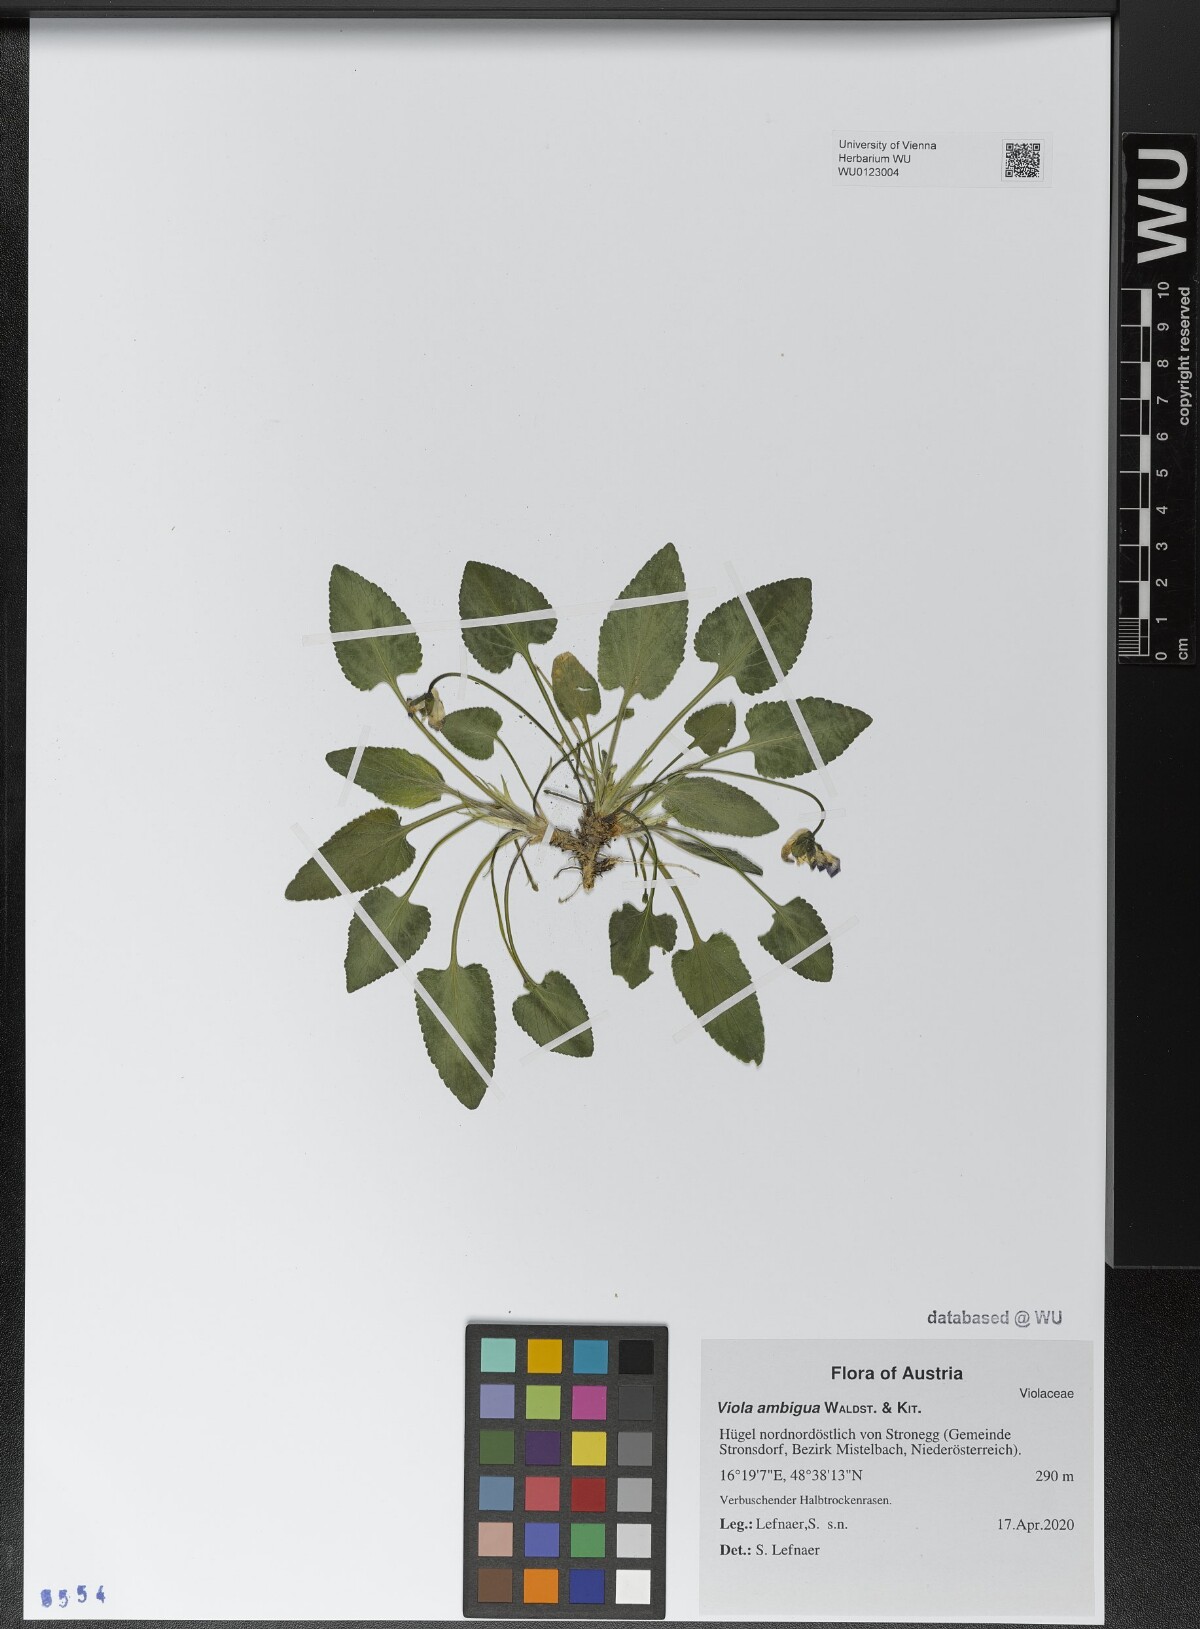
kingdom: Plantae
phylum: Tracheophyta
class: Magnoliopsida
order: Malpighiales
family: Violaceae
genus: Viola
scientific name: Viola ambigua
